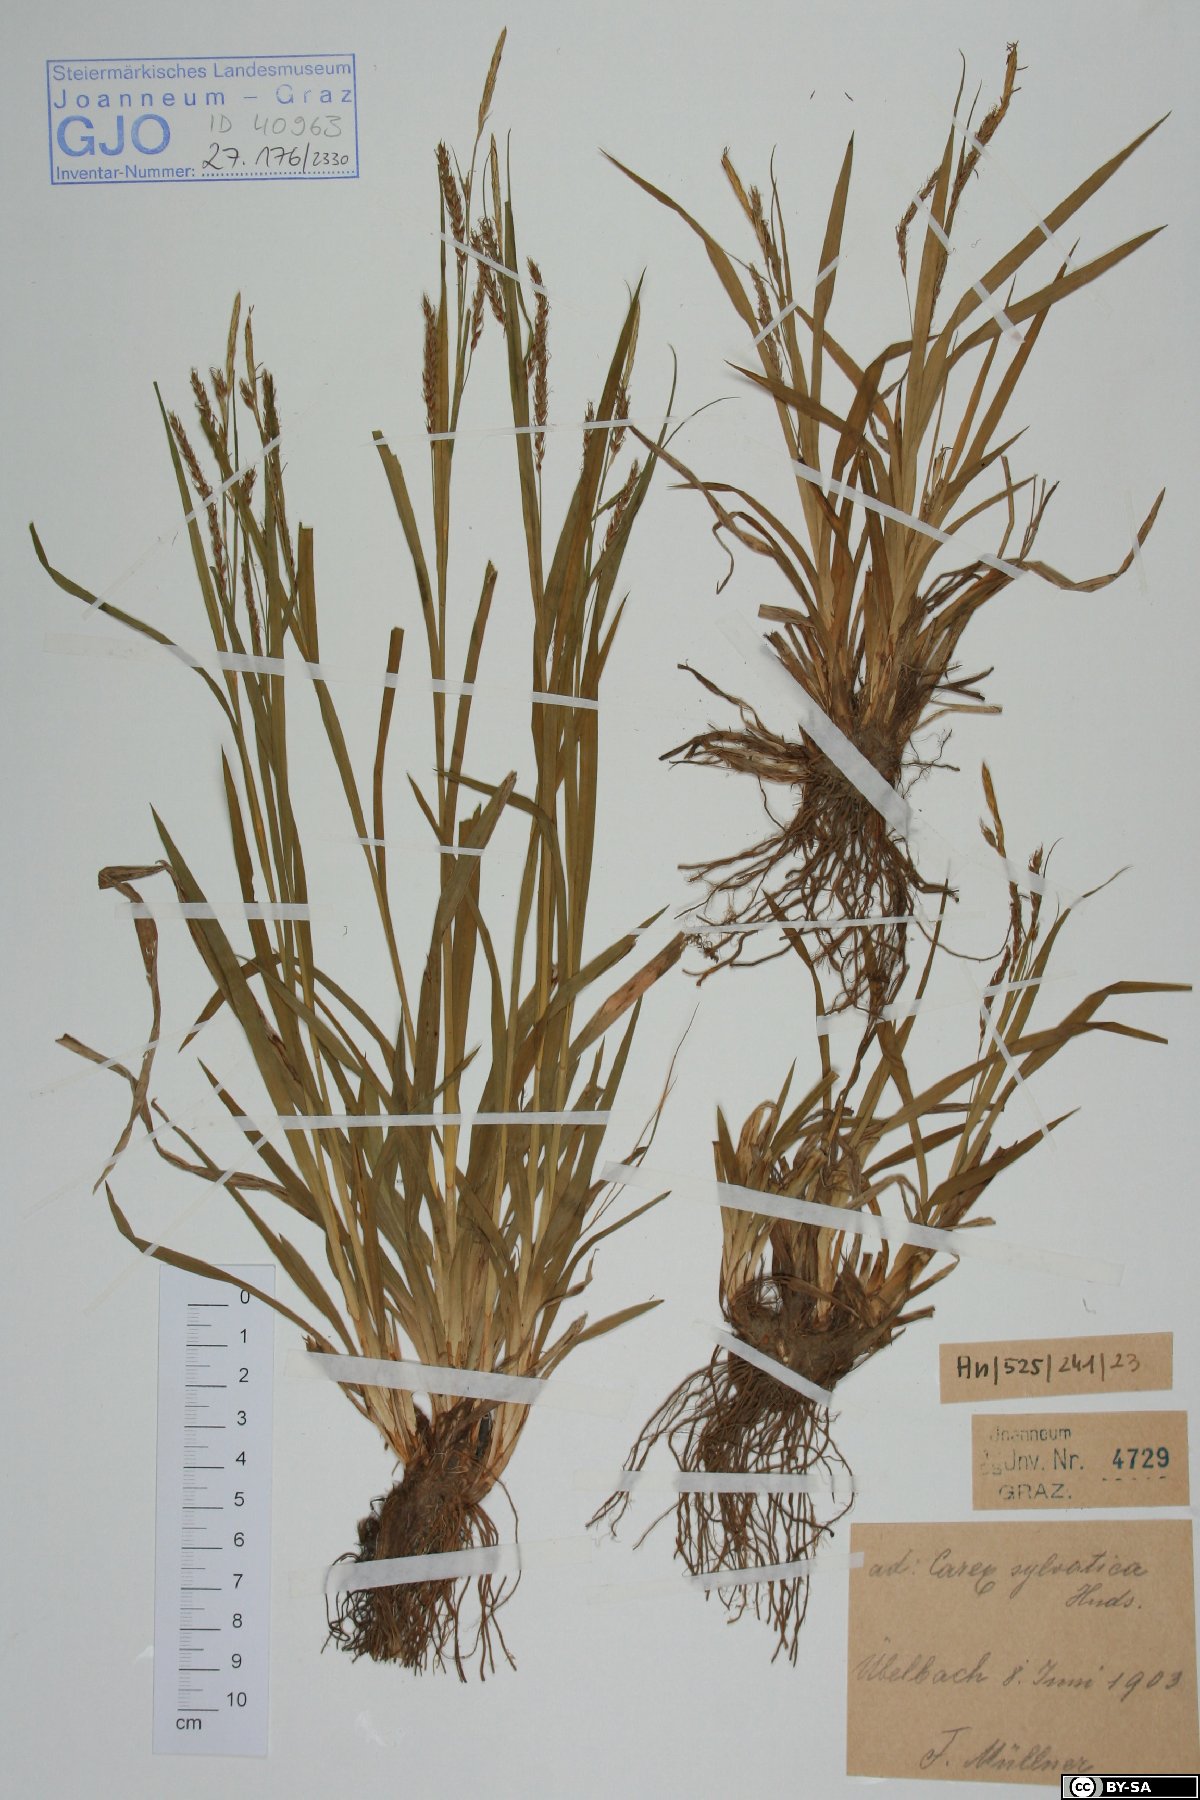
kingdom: Plantae
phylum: Tracheophyta
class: Liliopsida
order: Poales
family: Cyperaceae
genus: Carex
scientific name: Carex sylvatica
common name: Wood-sedge
